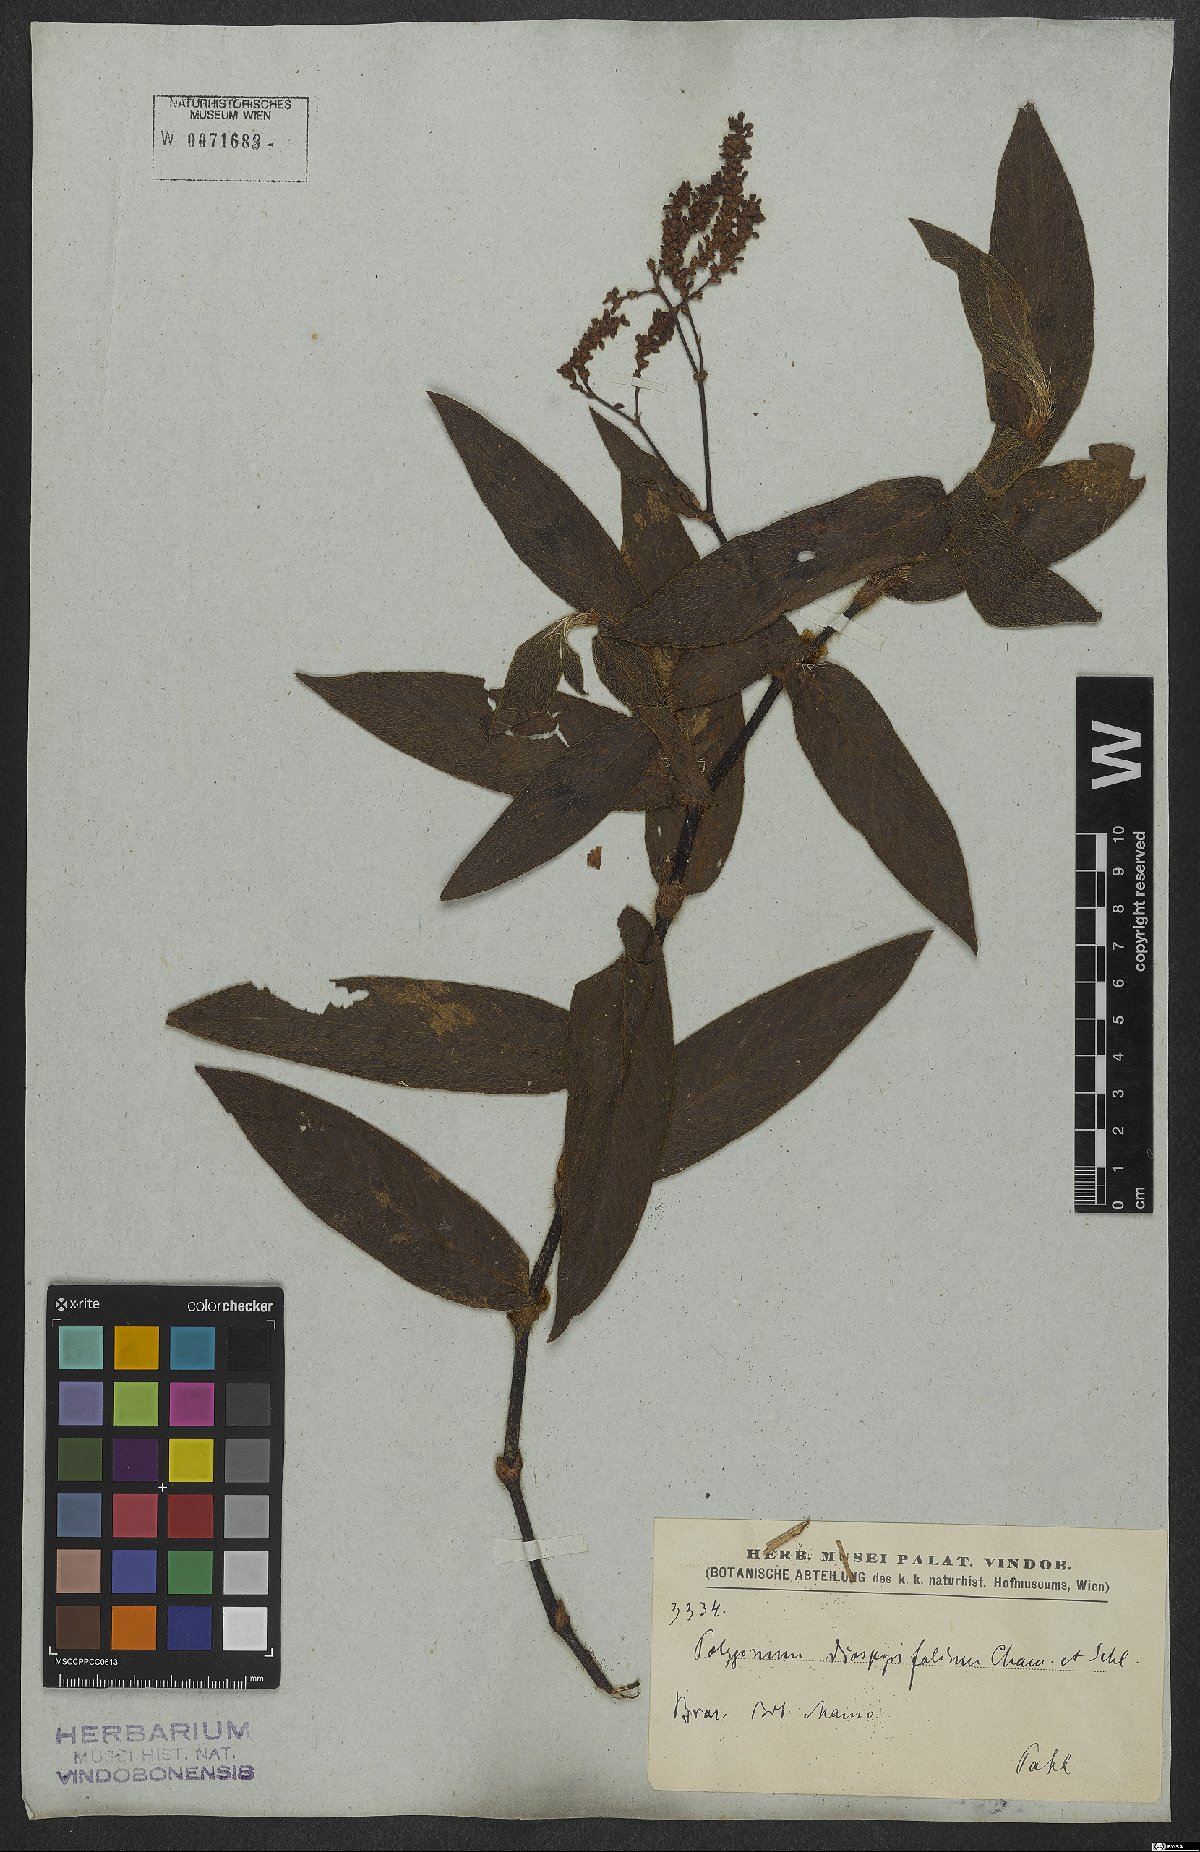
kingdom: Plantae
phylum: Tracheophyta
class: Magnoliopsida
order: Caryophyllales
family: Polygonaceae
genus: Persicaria
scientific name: Persicaria diospyrifolia
